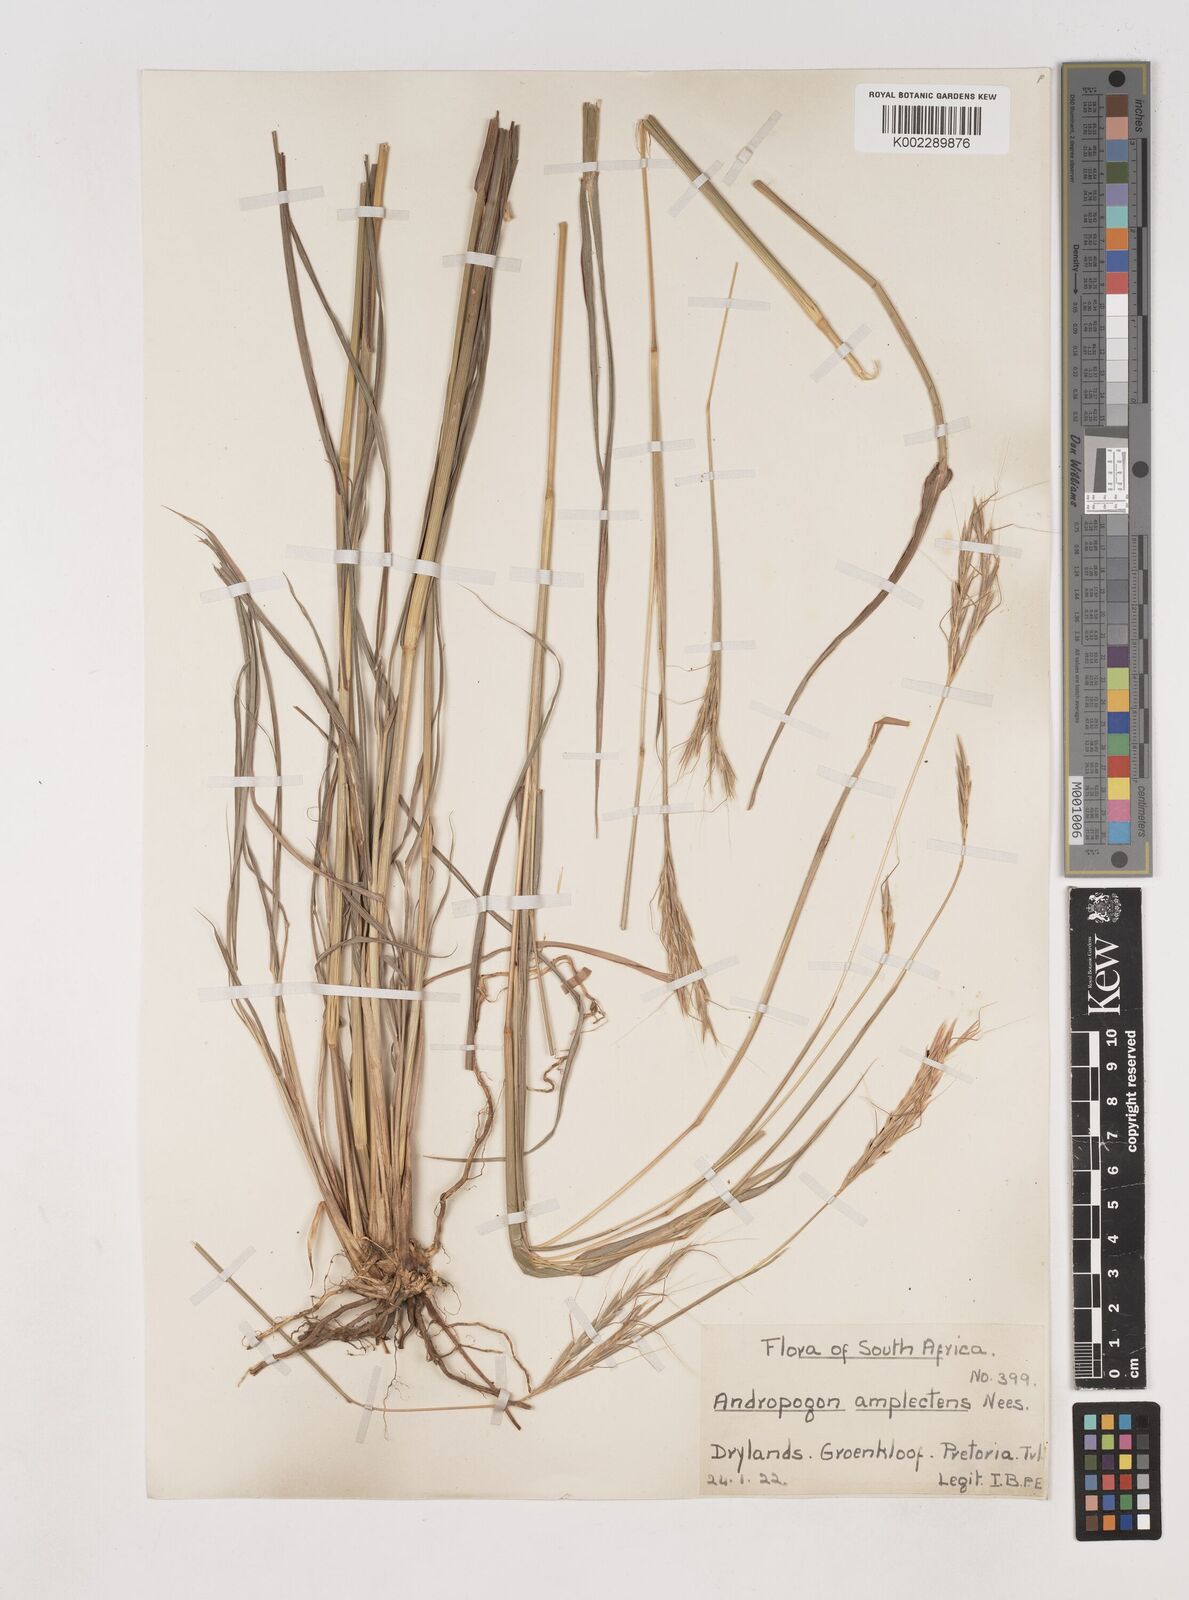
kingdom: Plantae
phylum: Tracheophyta
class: Liliopsida
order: Poales
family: Poaceae
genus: Diheteropogon
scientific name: Diheteropogon amplectens
